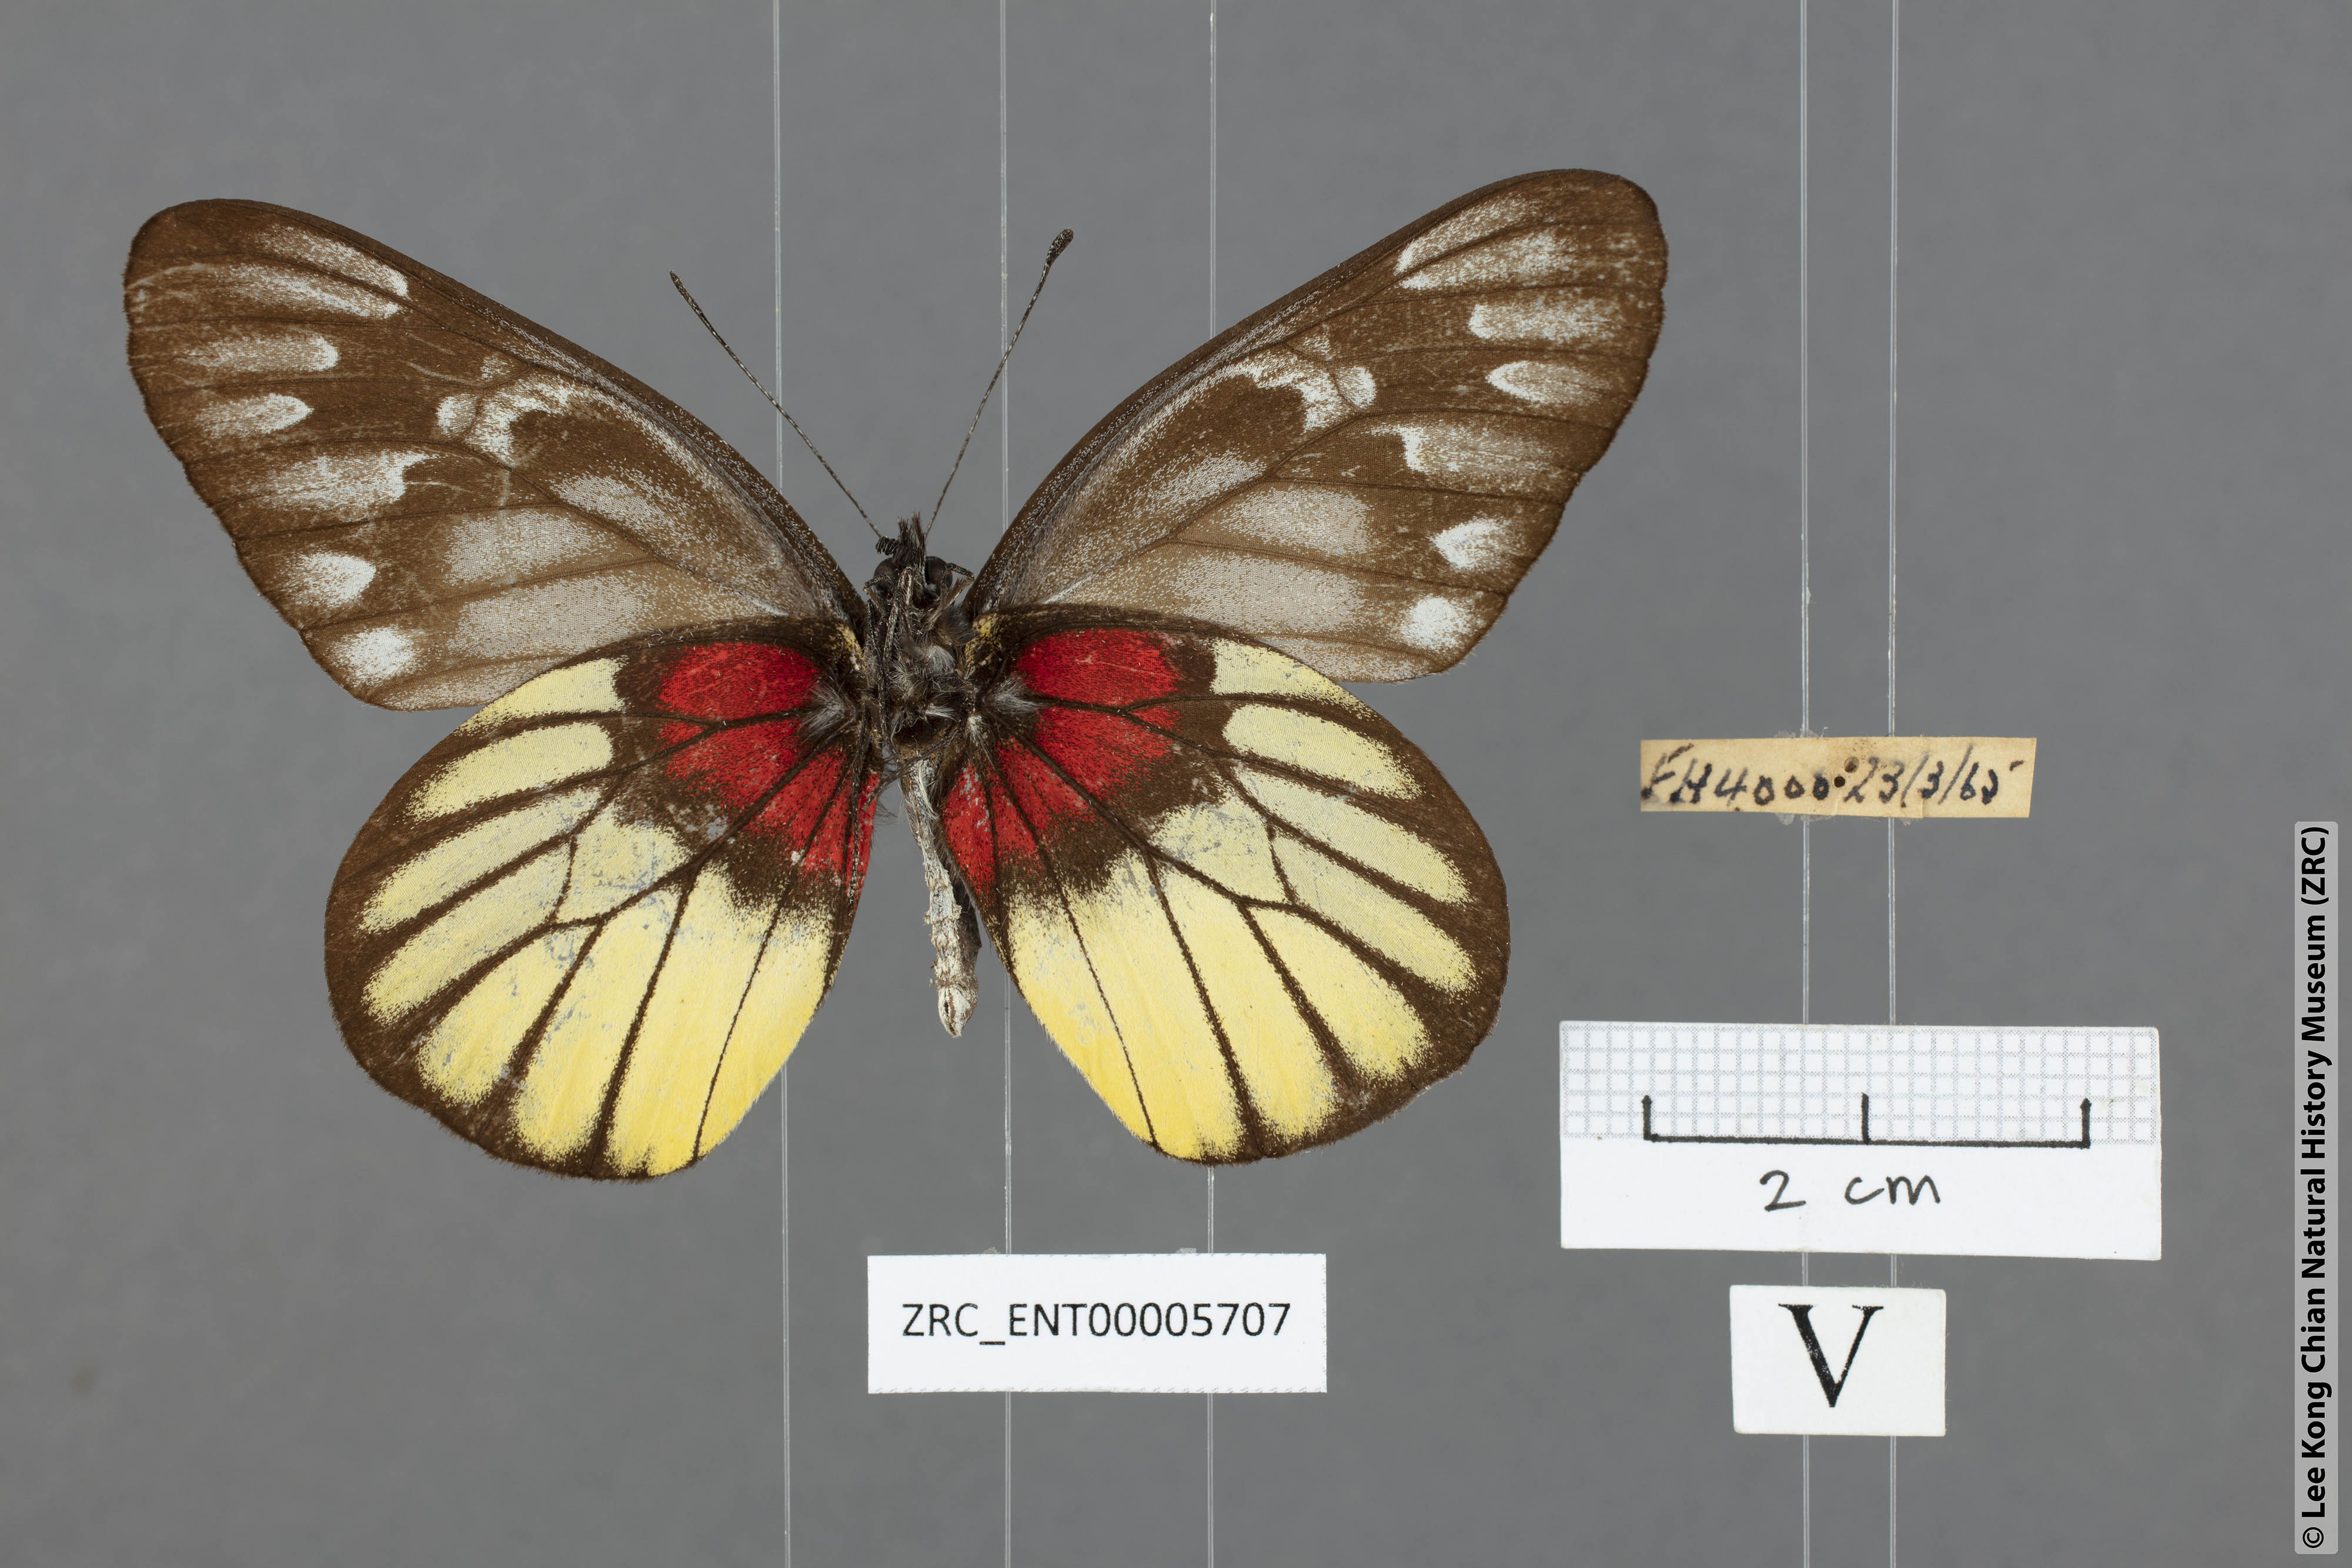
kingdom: Animalia
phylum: Arthropoda
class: Insecta
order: Lepidoptera
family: Pieridae
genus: Delias
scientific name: Delias ninus
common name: Malayan jezebel
